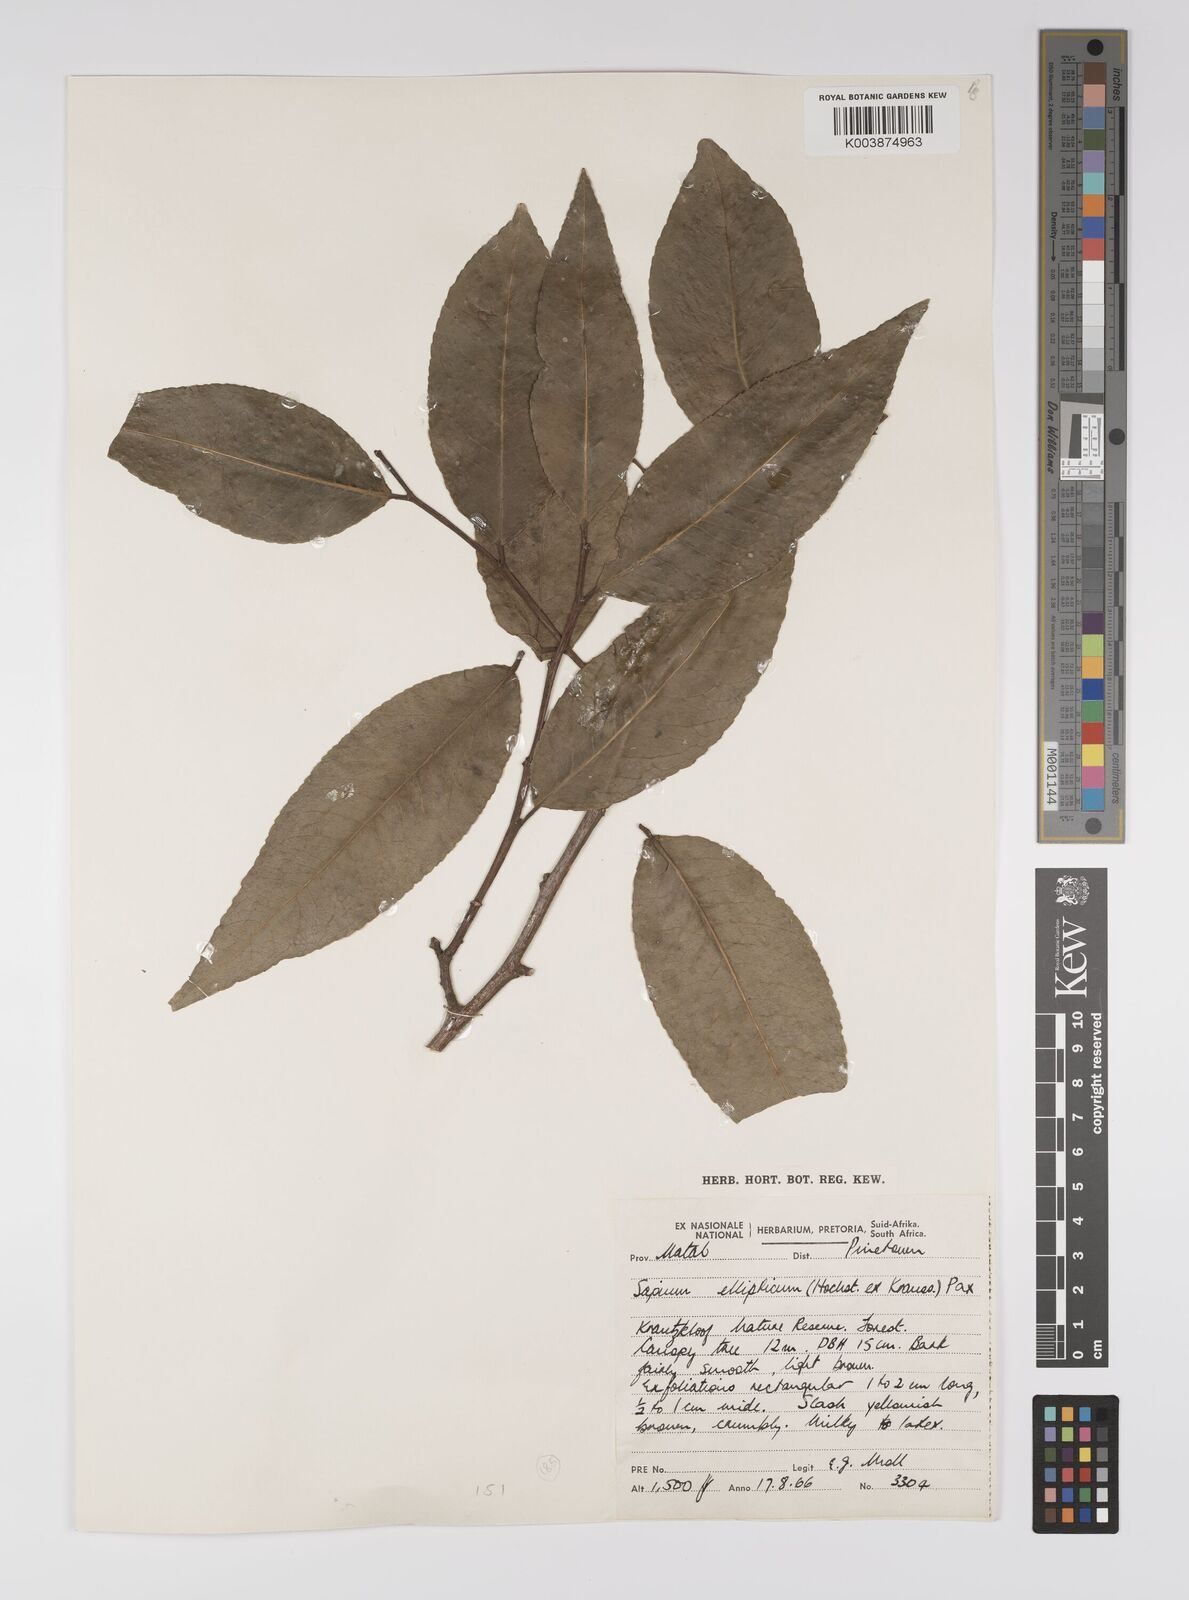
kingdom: Plantae
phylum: Tracheophyta
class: Magnoliopsida
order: Malpighiales
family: Euphorbiaceae
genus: Shirakiopsis
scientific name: Shirakiopsis elliptica
